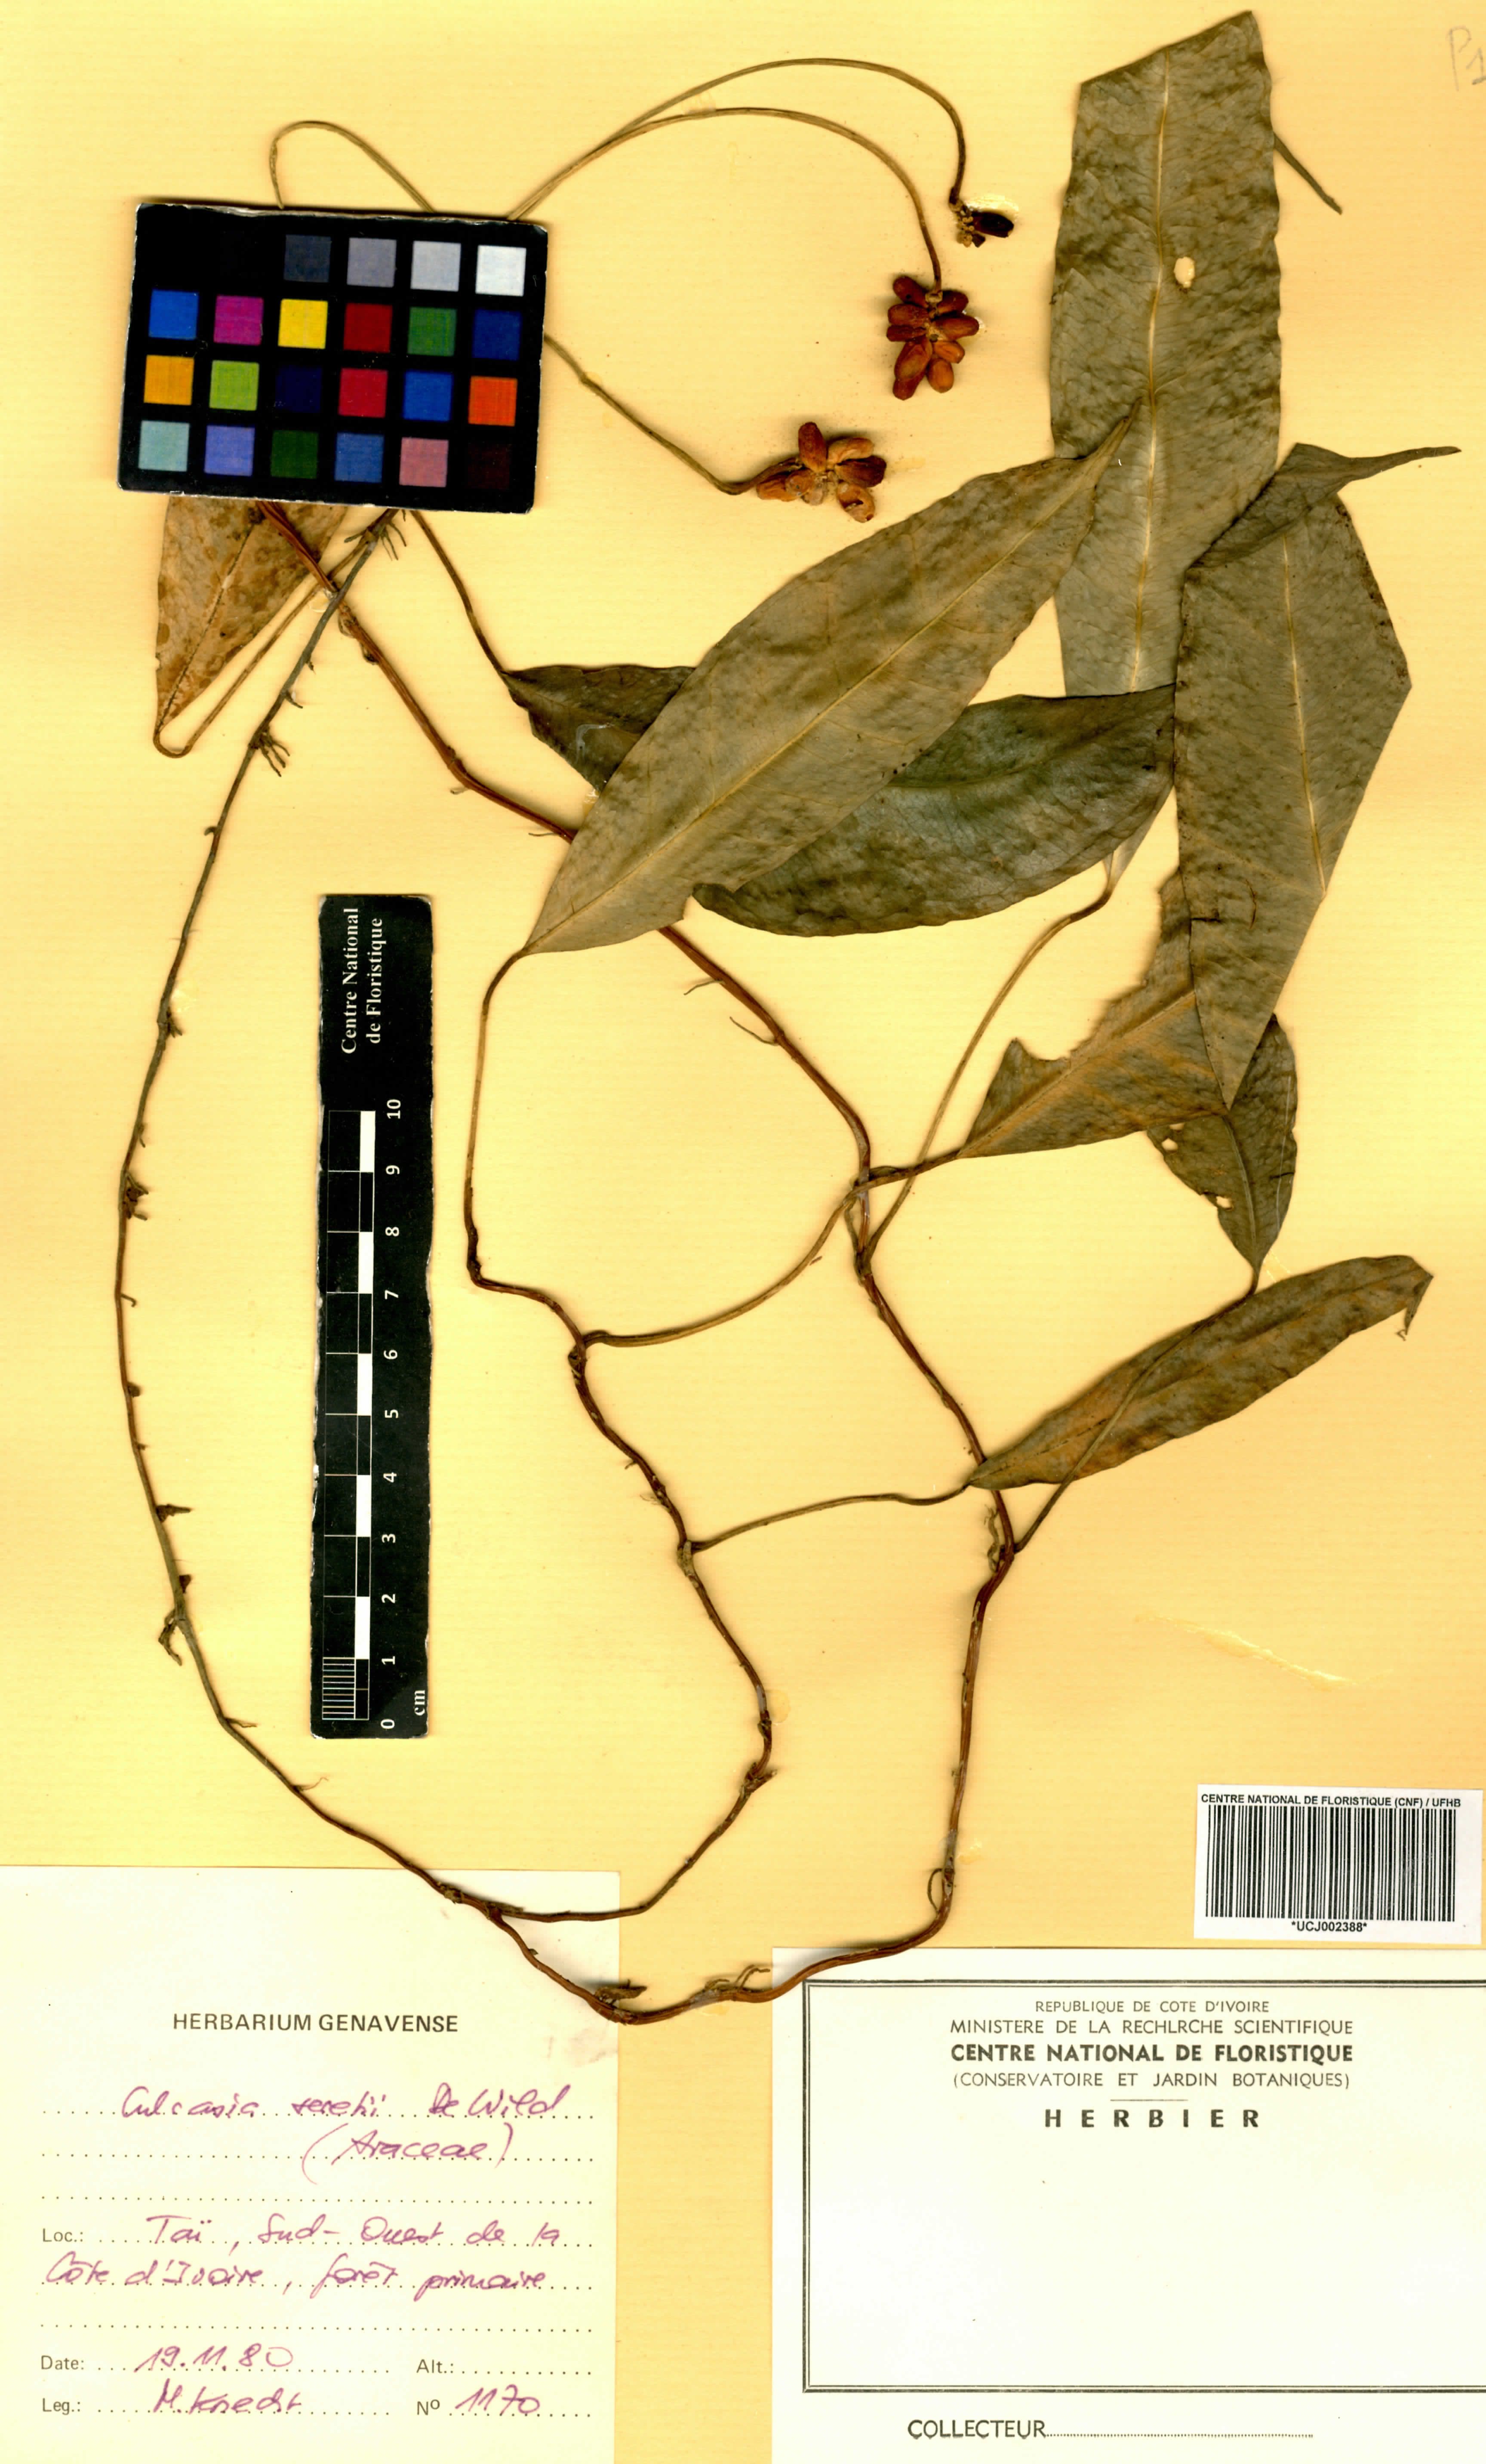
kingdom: Plantae
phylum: Tracheophyta
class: Liliopsida
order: Alismatales
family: Araceae
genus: Culcasia
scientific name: Culcasia seretii
